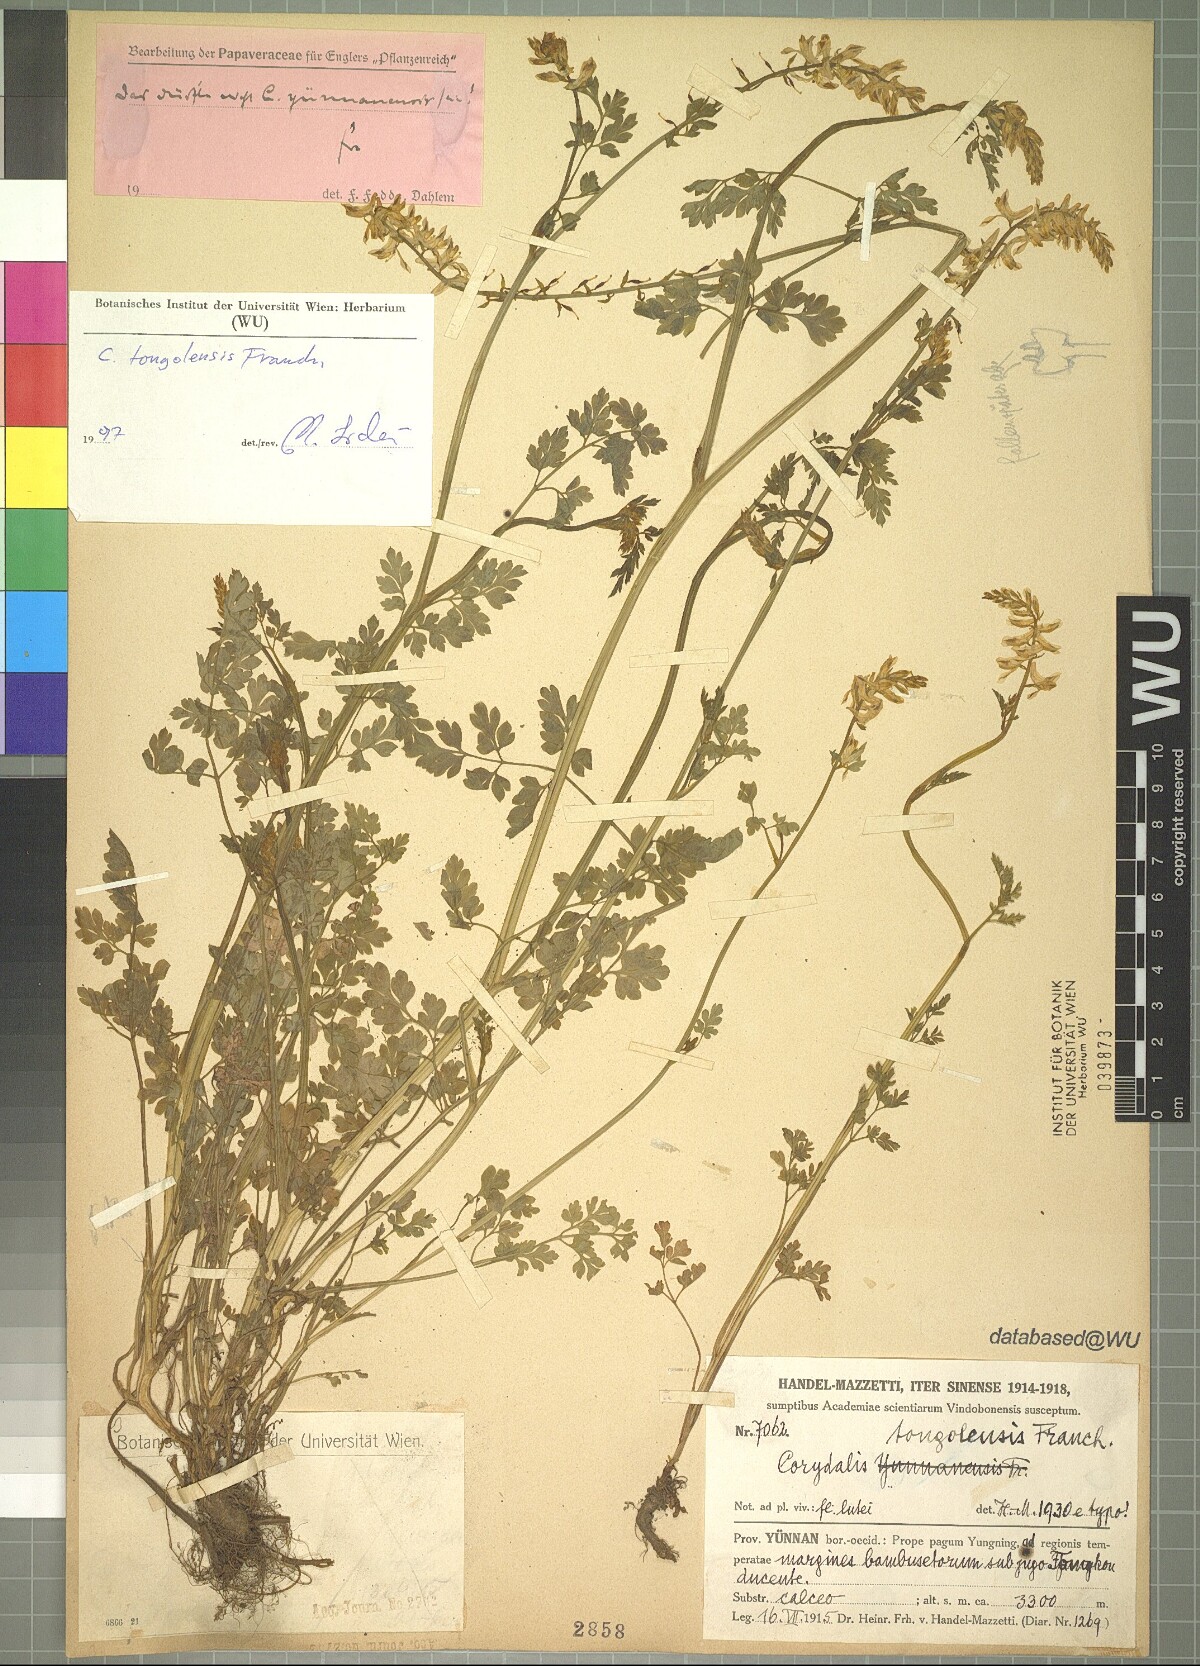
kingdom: Plantae
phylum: Tracheophyta
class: Magnoliopsida
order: Ranunculales
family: Papaveraceae
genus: Corydalis
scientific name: Corydalis tongolensis
